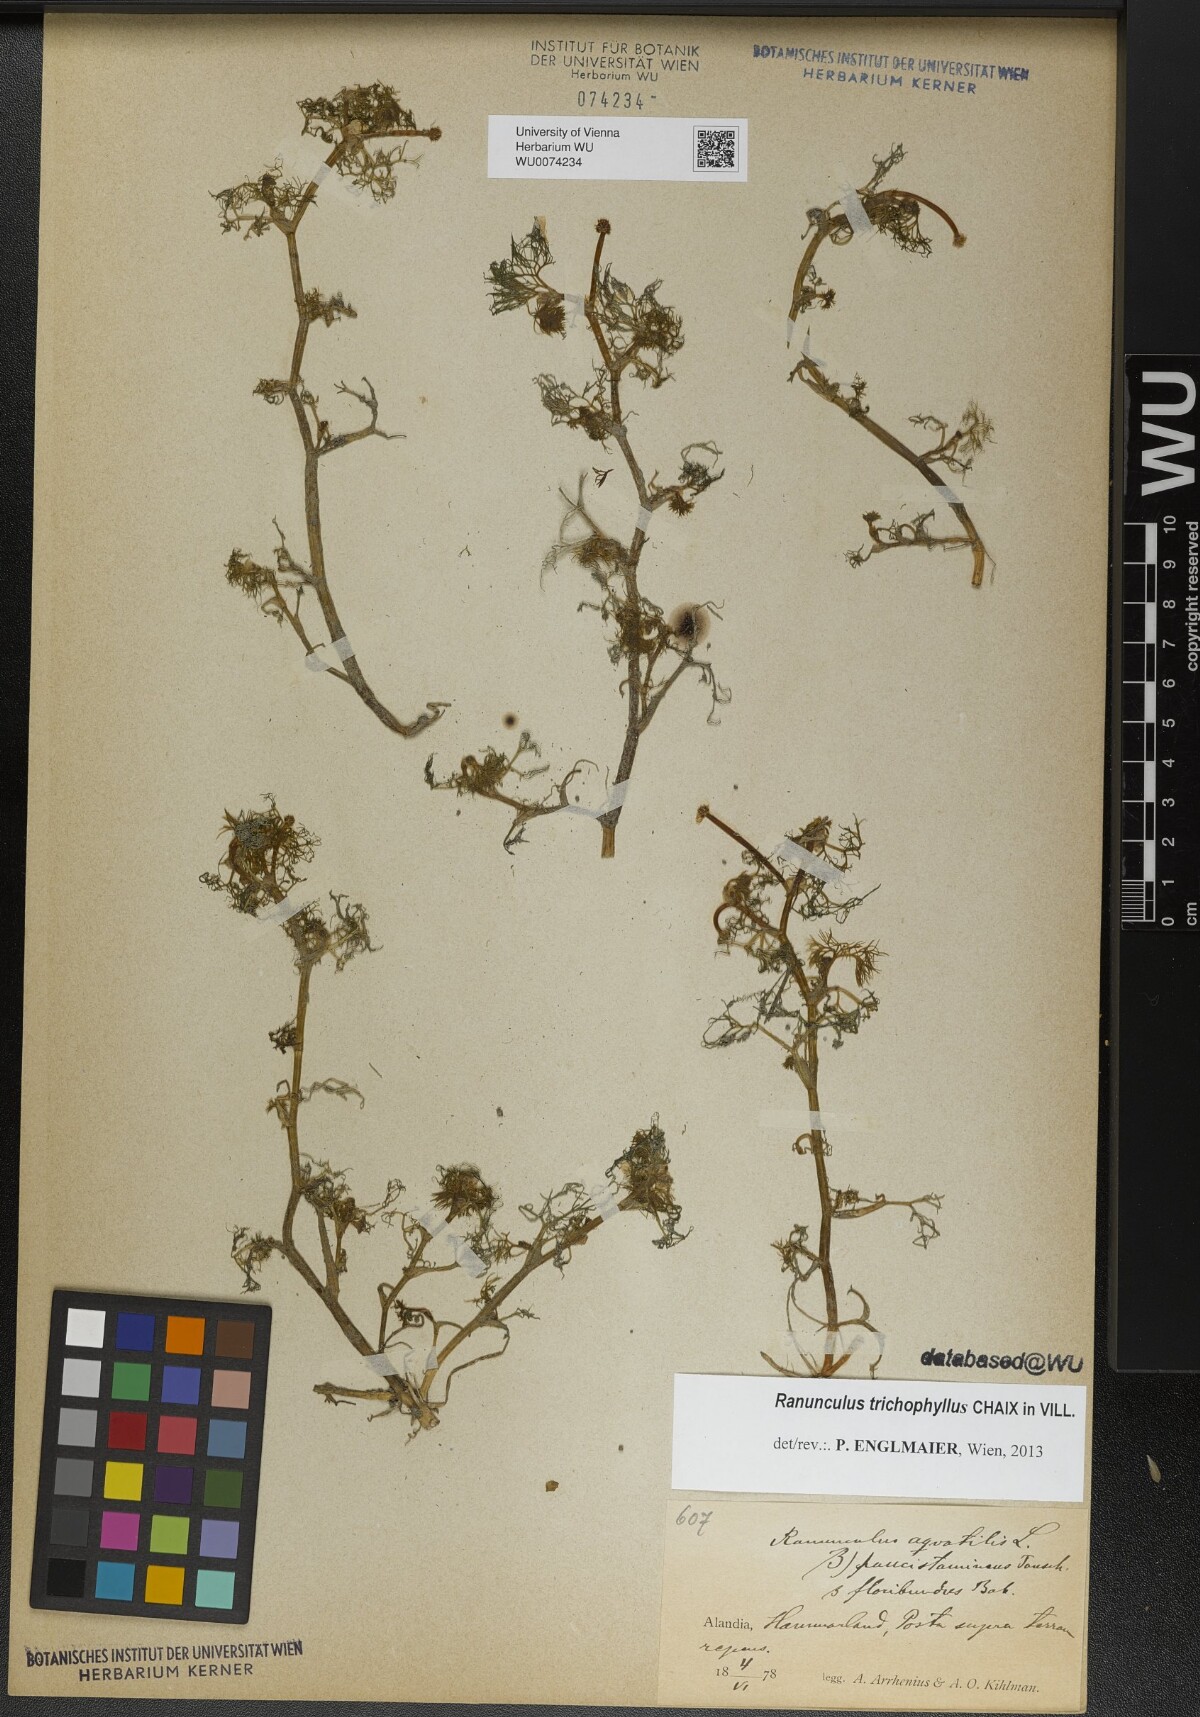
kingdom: Plantae
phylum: Tracheophyta
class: Magnoliopsida
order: Ranunculales
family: Ranunculaceae
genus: Ranunculus
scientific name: Ranunculus trichophyllus
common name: Thread-leaved water-crowfoot
